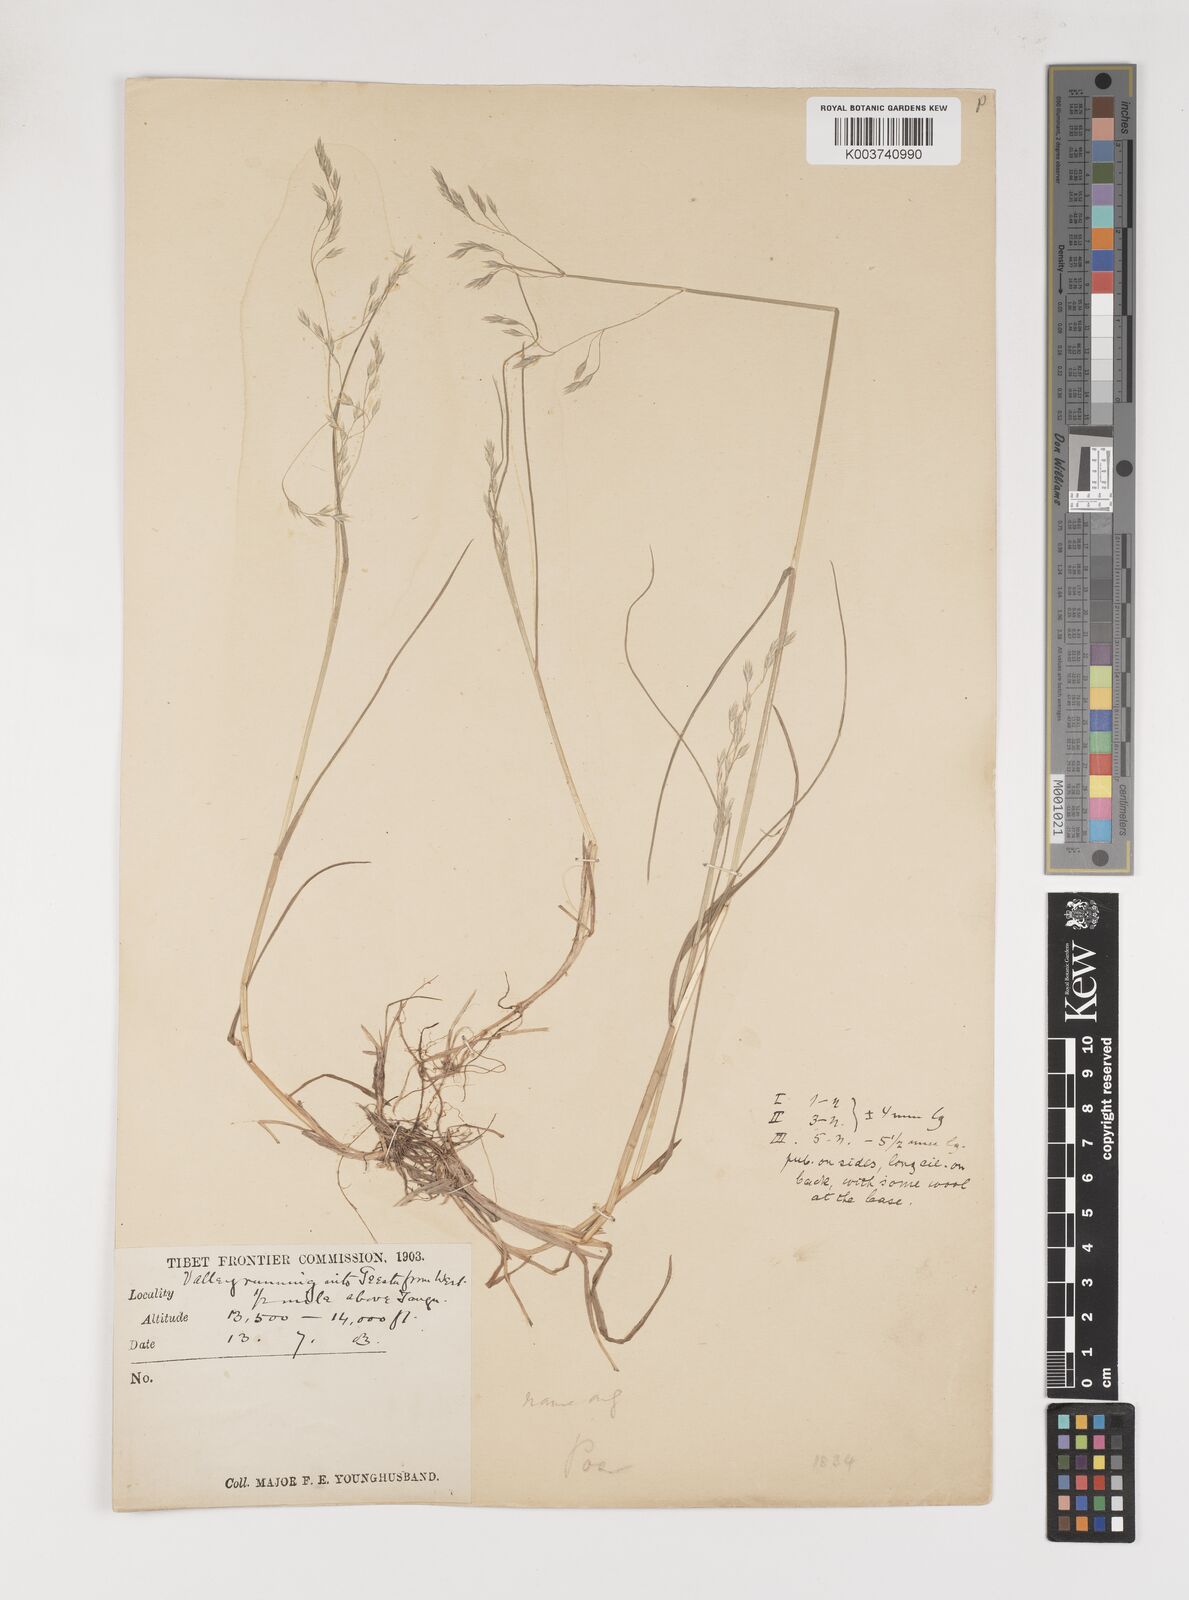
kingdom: Plantae
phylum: Tracheophyta
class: Liliopsida
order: Poales
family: Poaceae
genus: Poa
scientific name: Poa nitidespiculata
